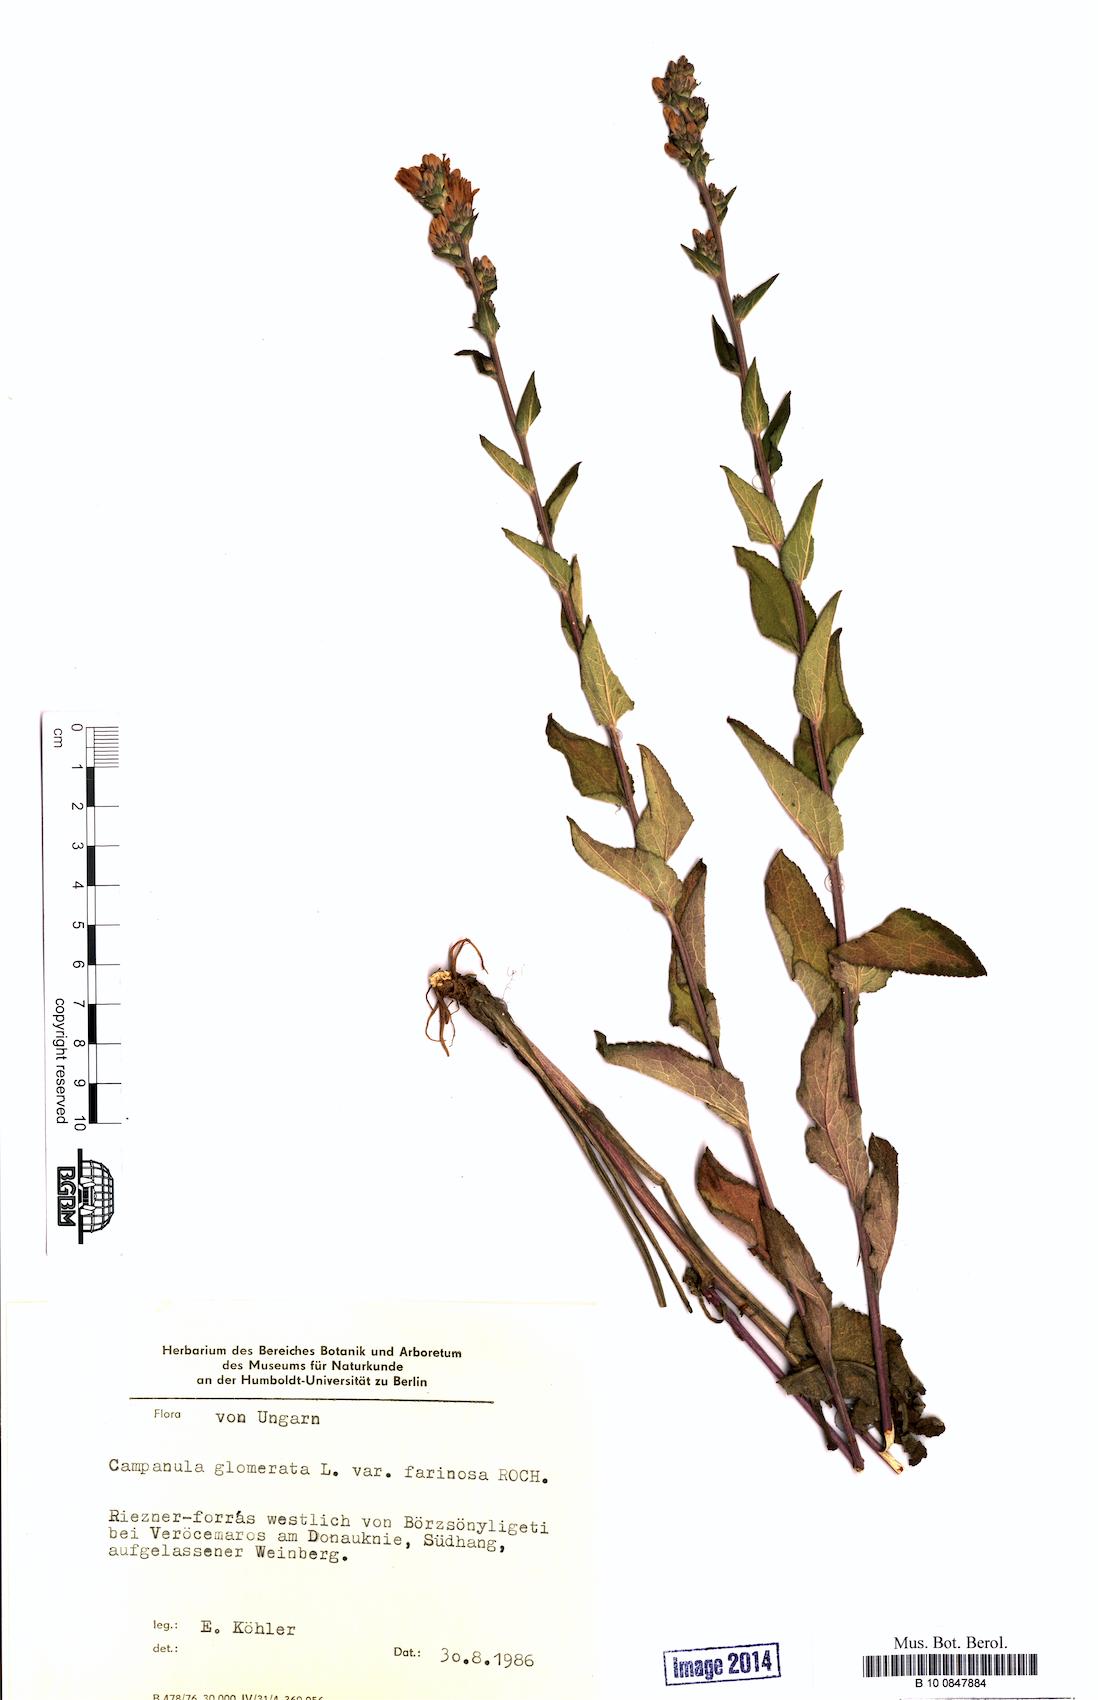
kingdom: Plantae
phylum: Tracheophyta
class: Magnoliopsida
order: Asterales
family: Campanulaceae
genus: Campanula
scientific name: Campanula glomerata
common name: Clustered bellflower
